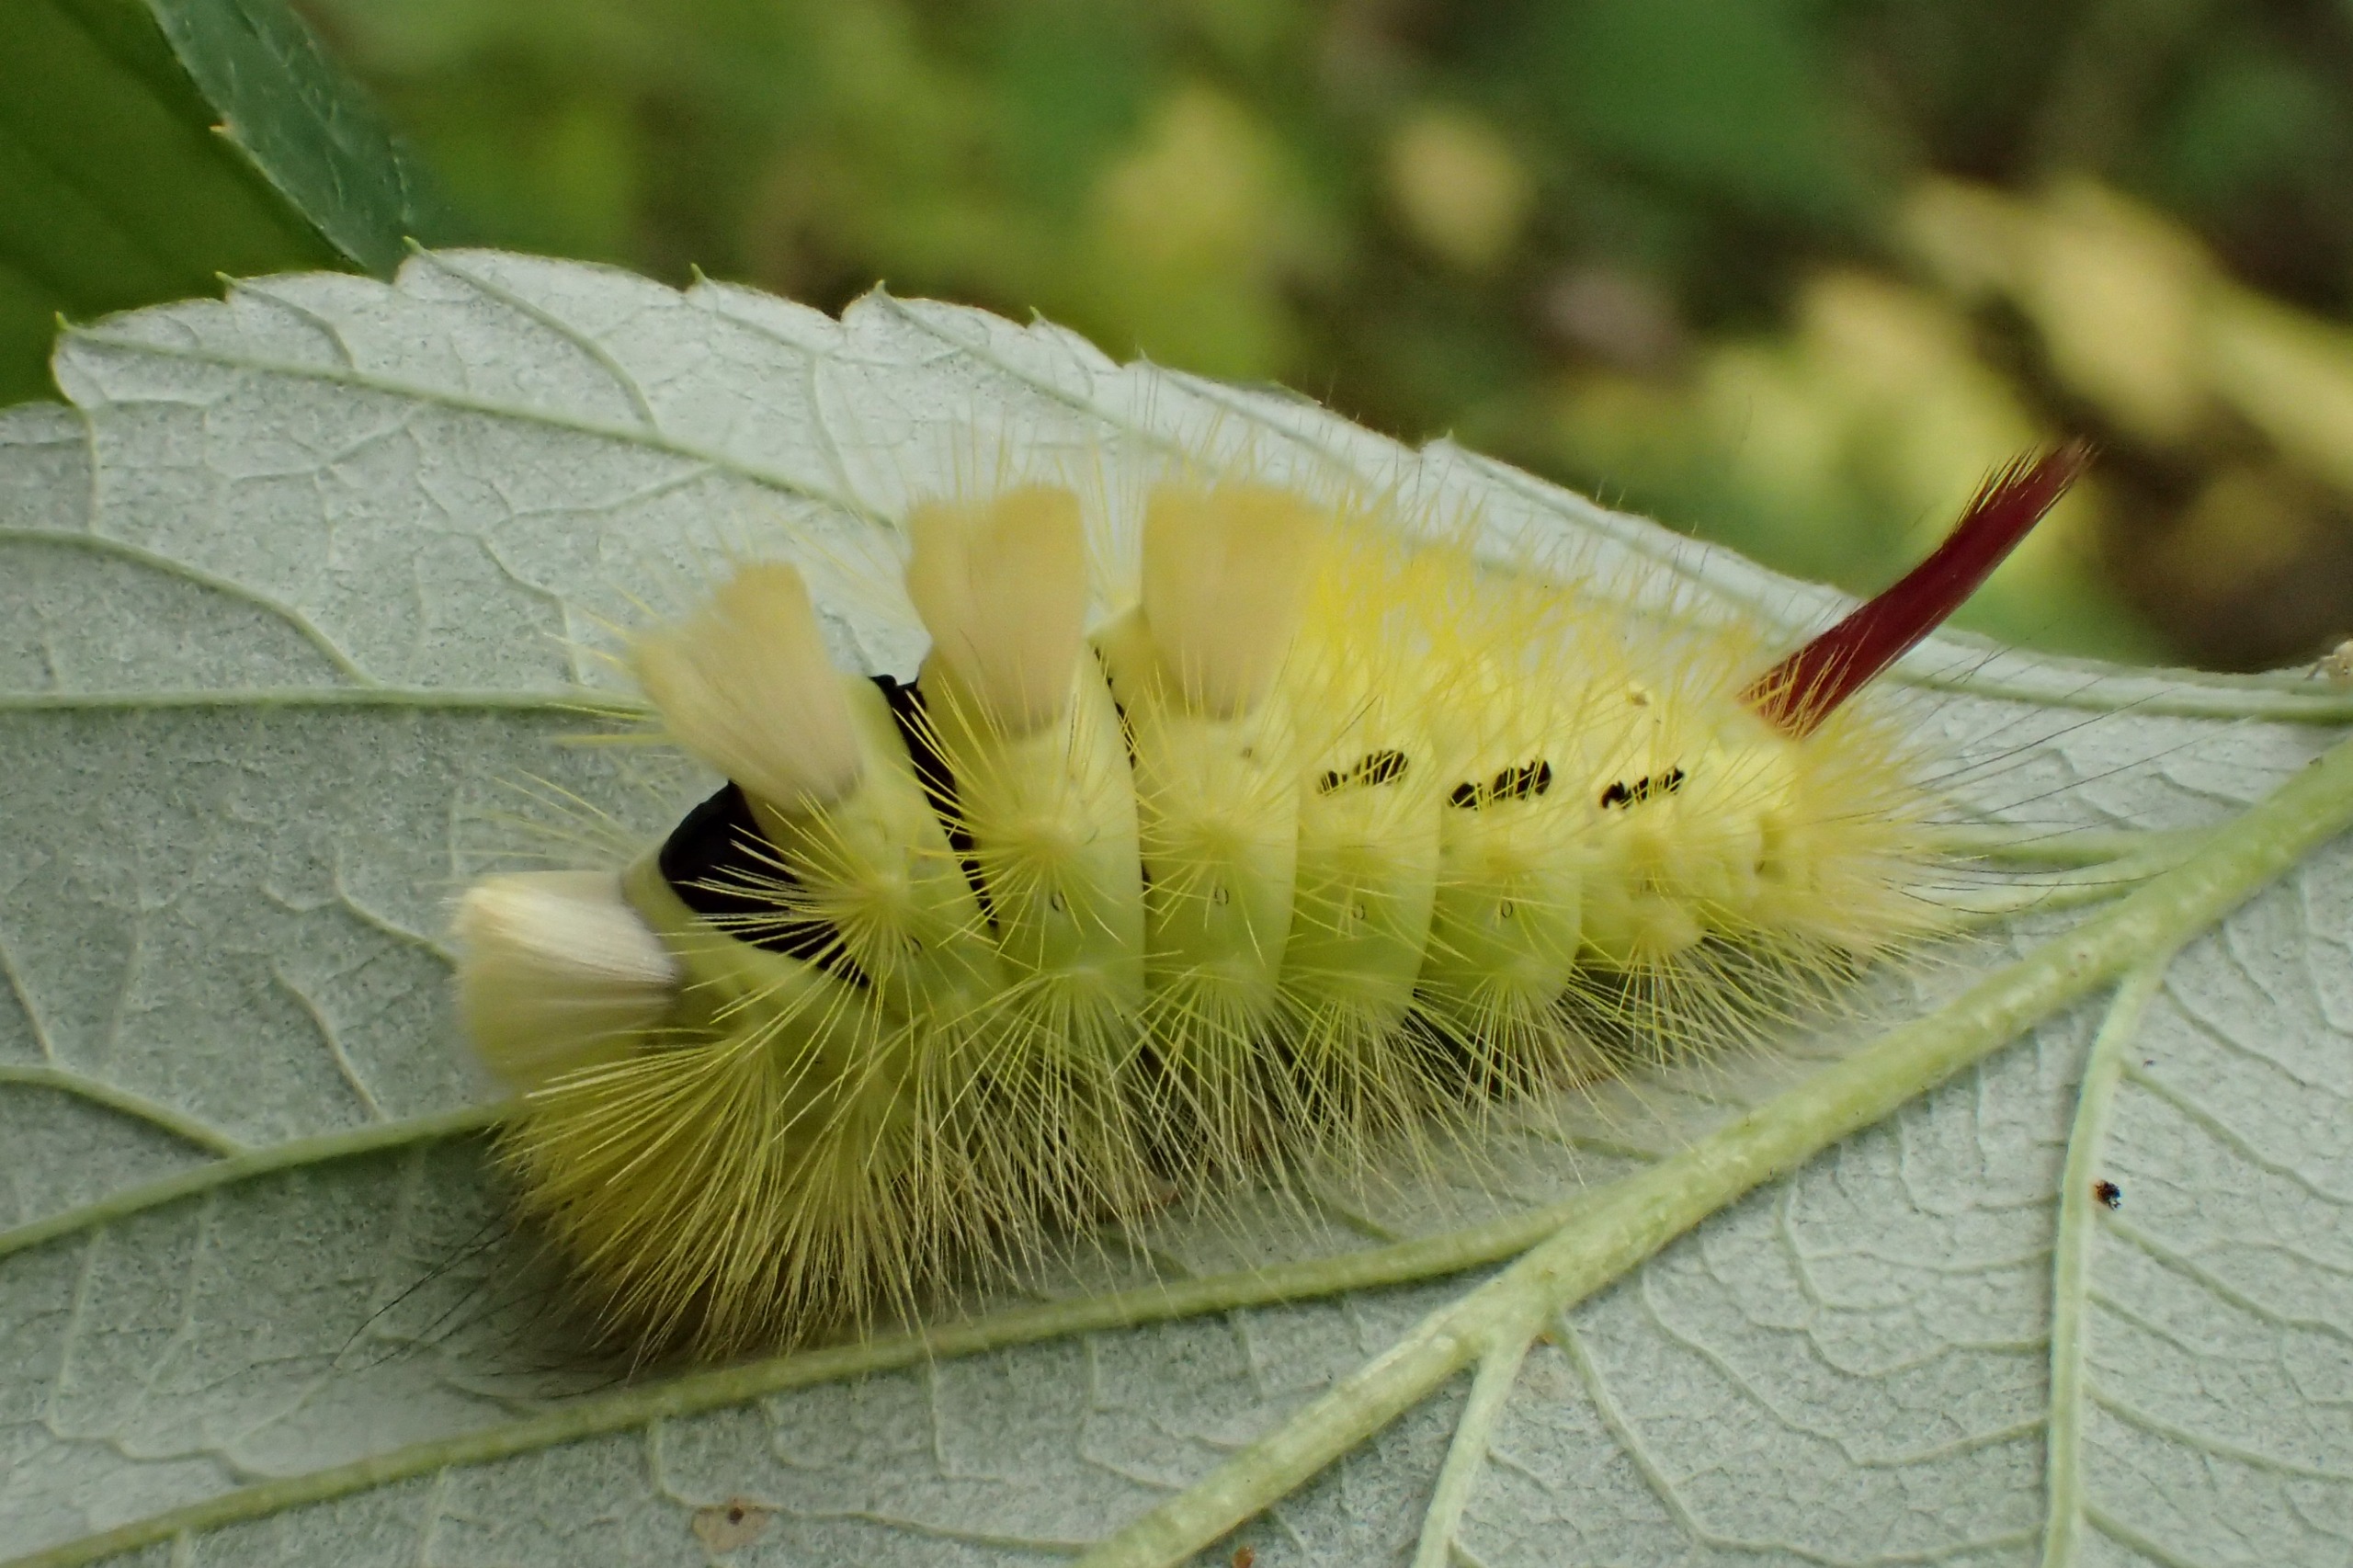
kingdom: Animalia
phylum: Arthropoda
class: Insecta
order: Lepidoptera
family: Erebidae
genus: Calliteara
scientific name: Calliteara pudibunda
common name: Bøgenonne
